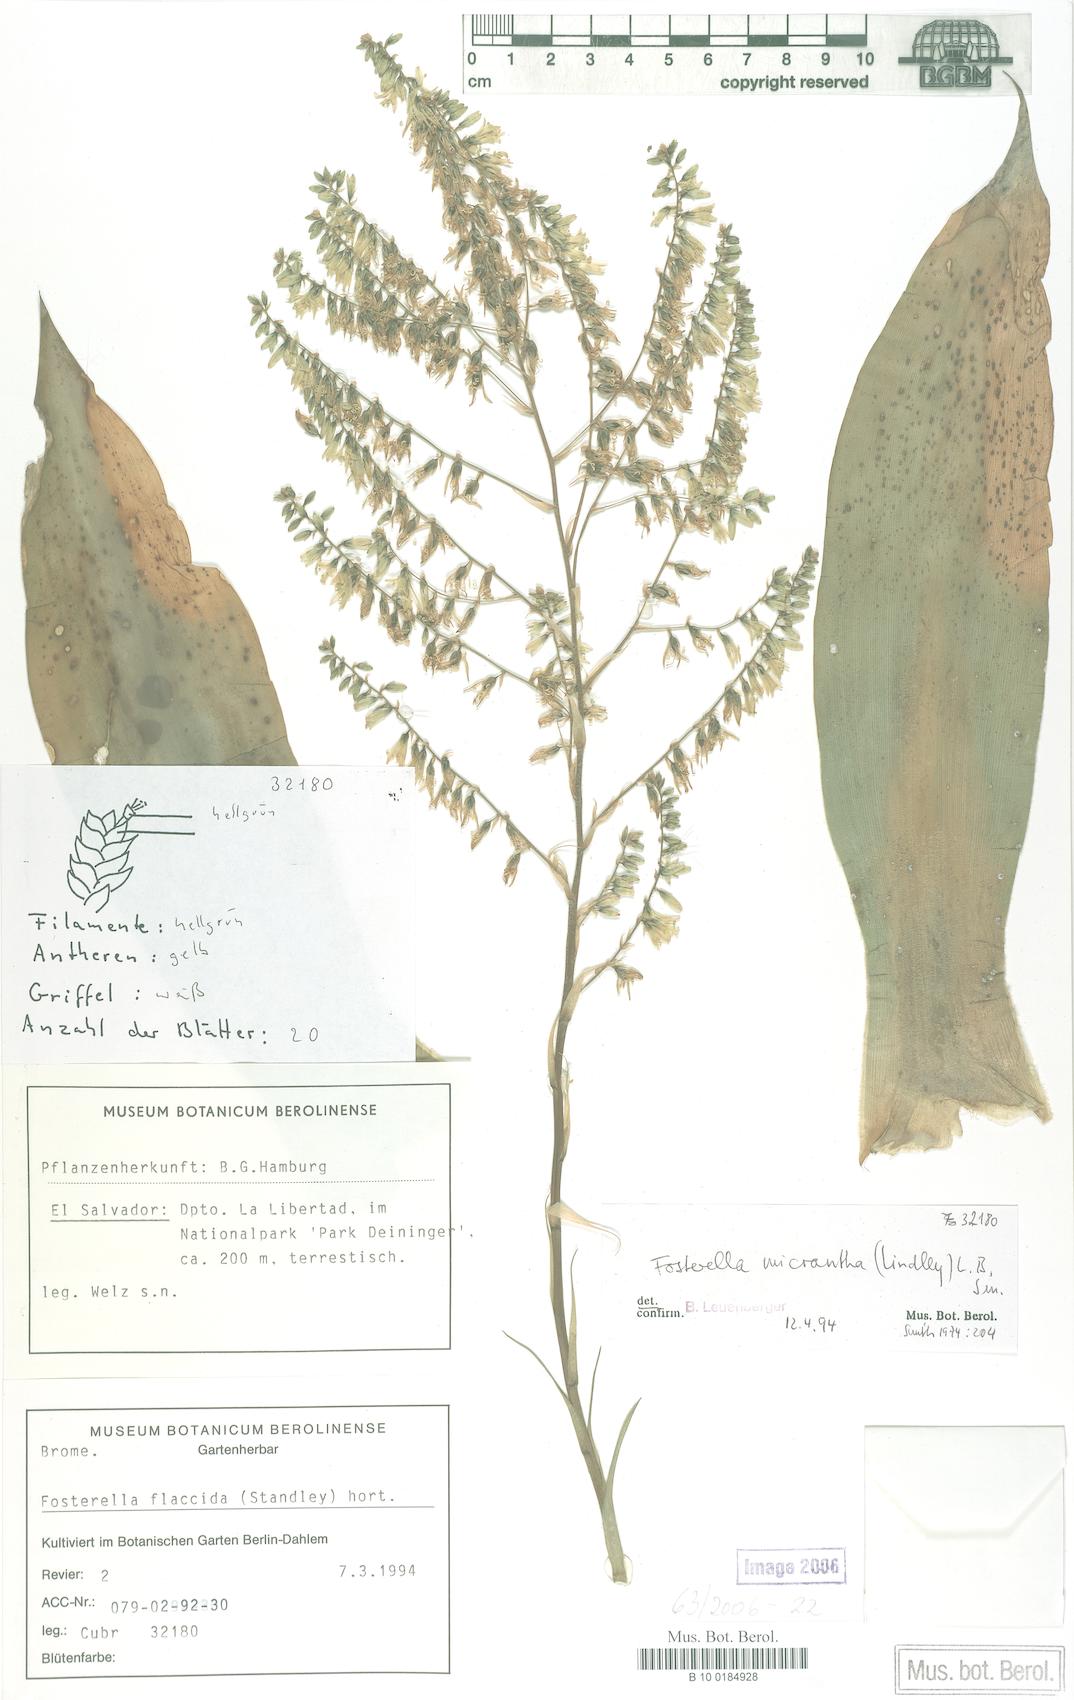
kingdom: Plantae
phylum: Tracheophyta
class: Liliopsida
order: Poales
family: Bromeliaceae
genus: Fosterella
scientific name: Fosterella micrantha
